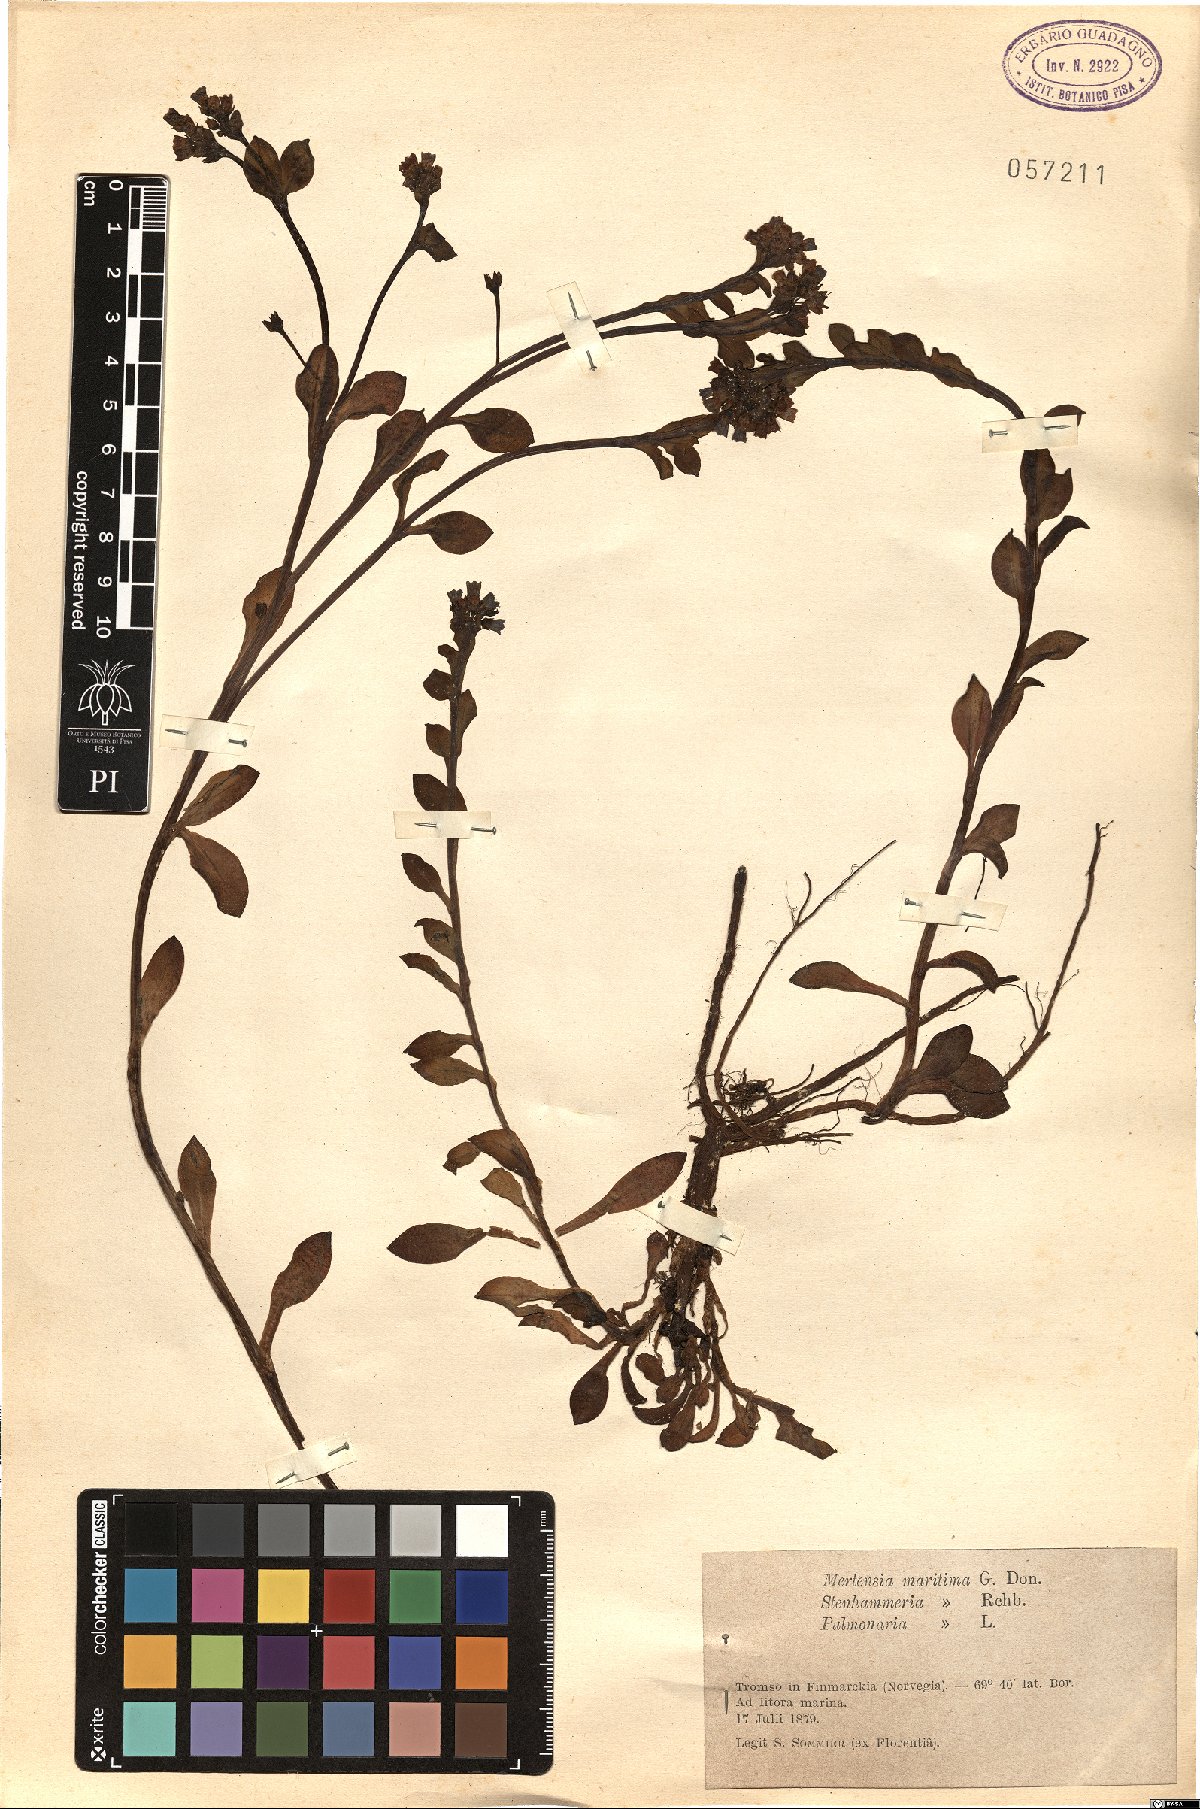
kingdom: Plantae
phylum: Tracheophyta
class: Magnoliopsida
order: Boraginales
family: Boraginaceae
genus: Mertensia
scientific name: Mertensia maritima
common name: Oysterplant
